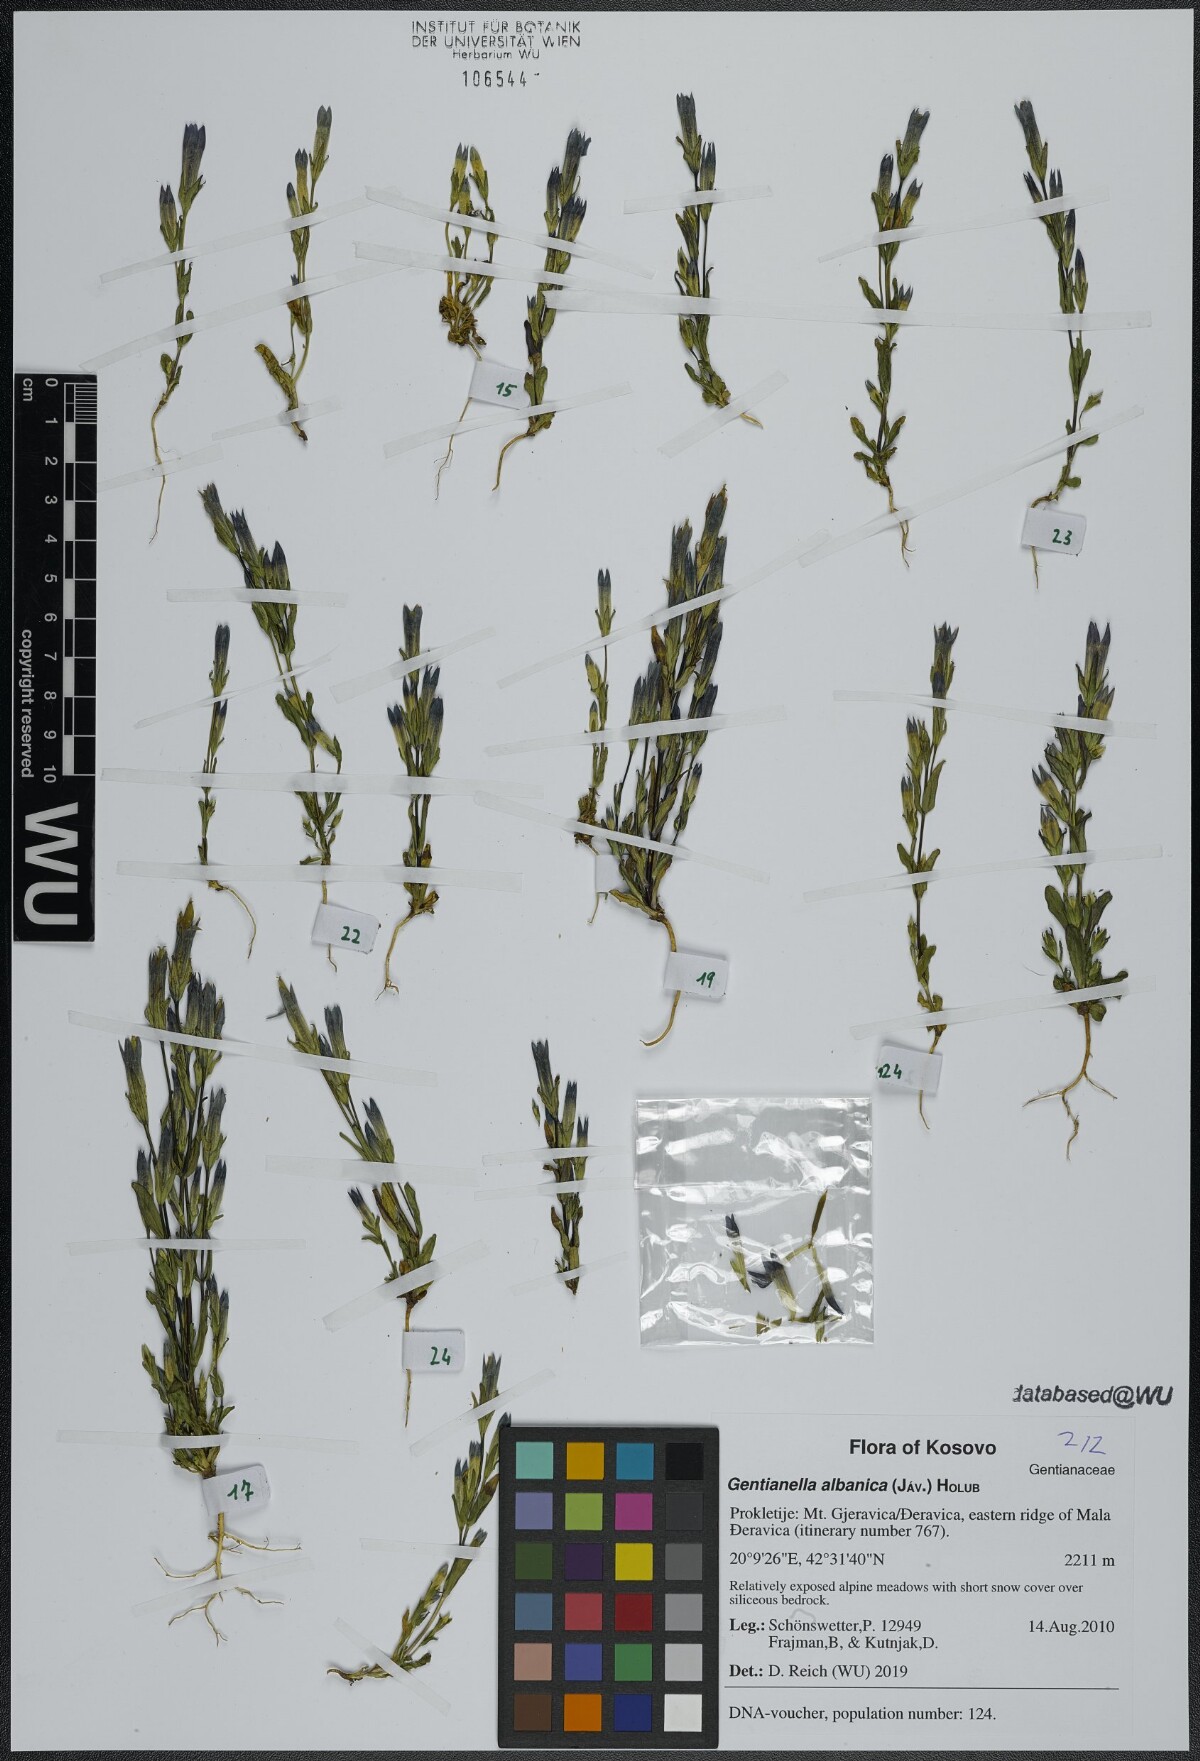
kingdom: Plantae
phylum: Tracheophyta
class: Magnoliopsida
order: Gentianales
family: Gentianaceae
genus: Gentianella
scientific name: Gentianella albanica
